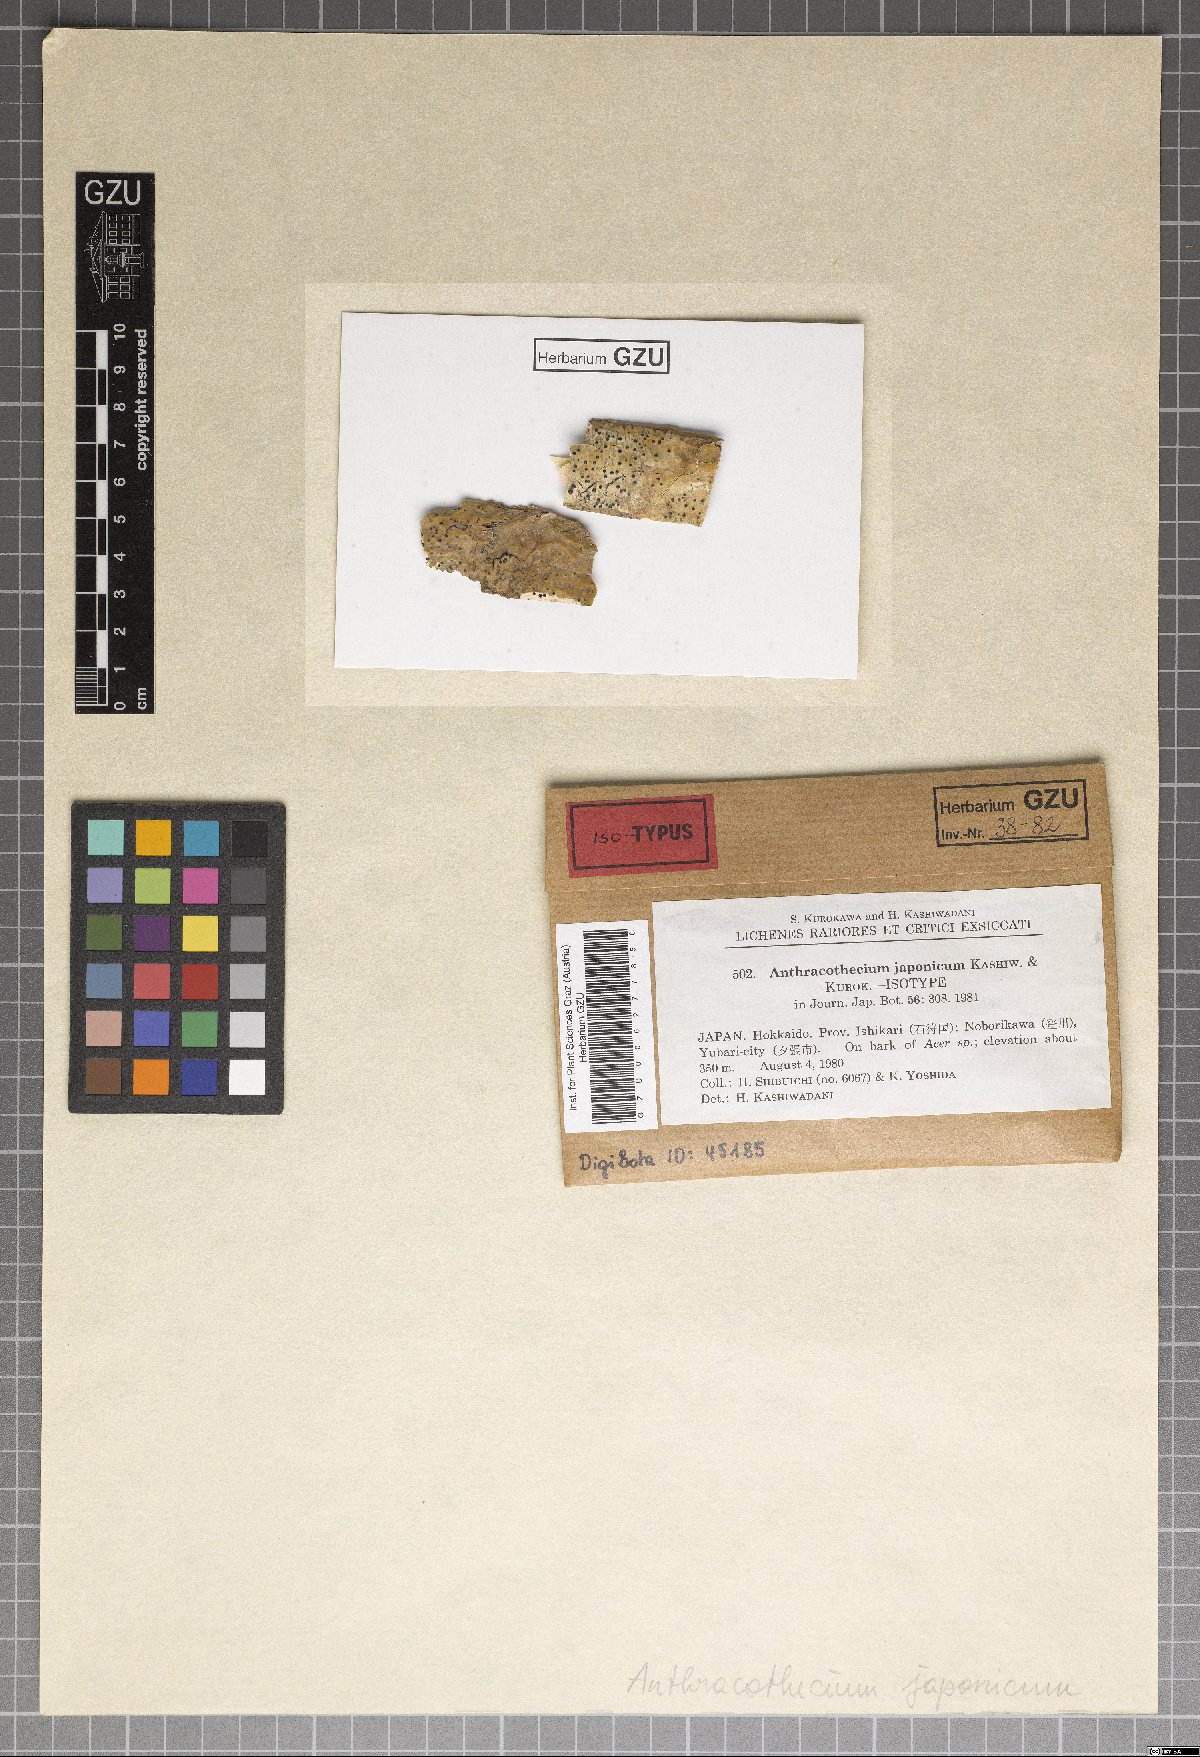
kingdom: Fungi
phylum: Ascomycota
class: Eurotiomycetes
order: Pyrenulales
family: Pyrenulaceae
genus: Pyrenula
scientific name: Pyrenula neojaponica
